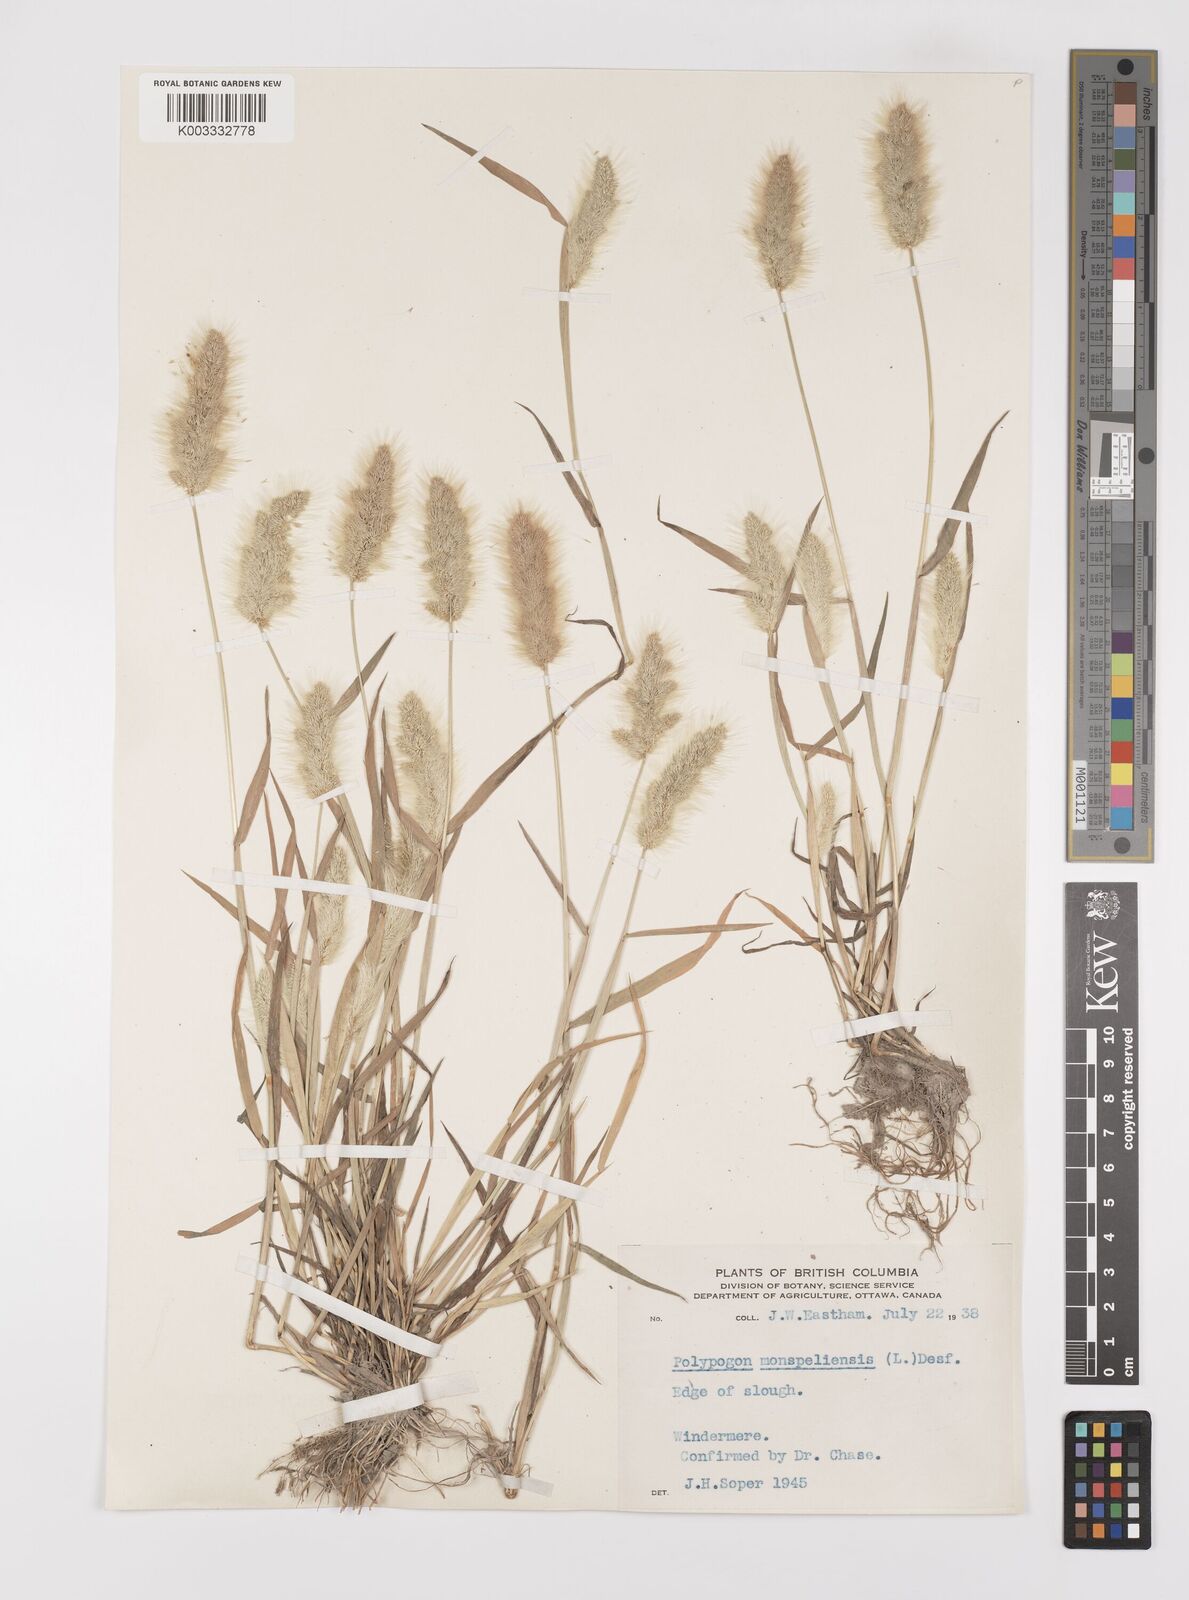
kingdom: Plantae
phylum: Tracheophyta
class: Liliopsida
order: Poales
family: Poaceae
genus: Polypogon
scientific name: Polypogon monspeliensis
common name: Annual rabbitsfoot grass
